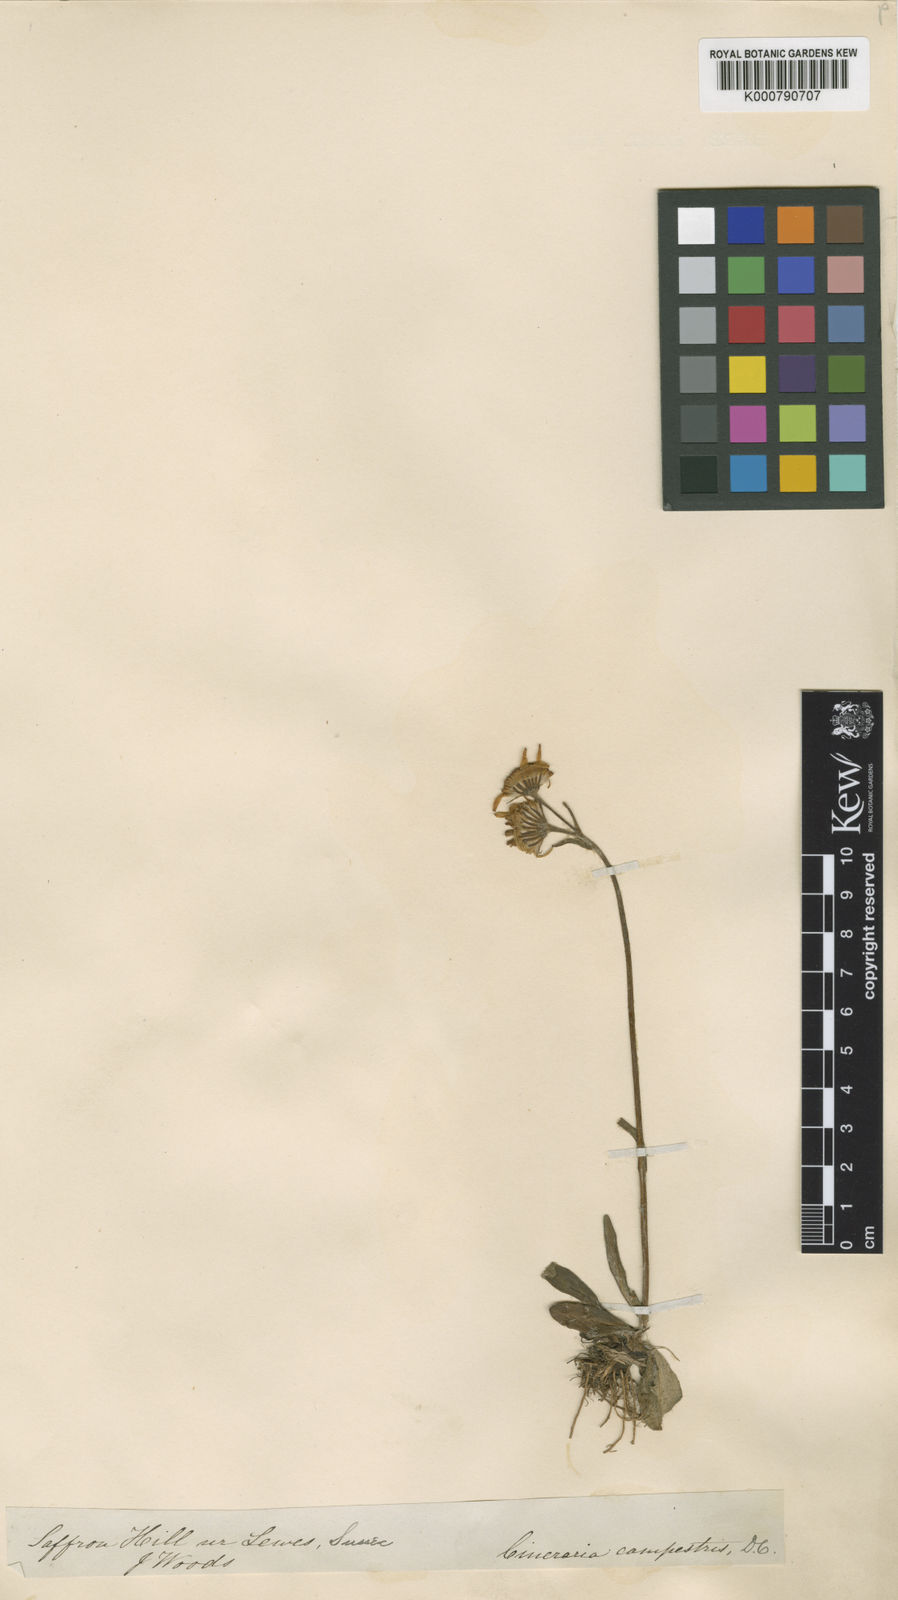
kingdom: Plantae
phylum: Tracheophyta
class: Magnoliopsida
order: Asterales
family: Asteraceae
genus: Tephroseris
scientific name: Tephroseris integrifolia
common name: Field fleawort
